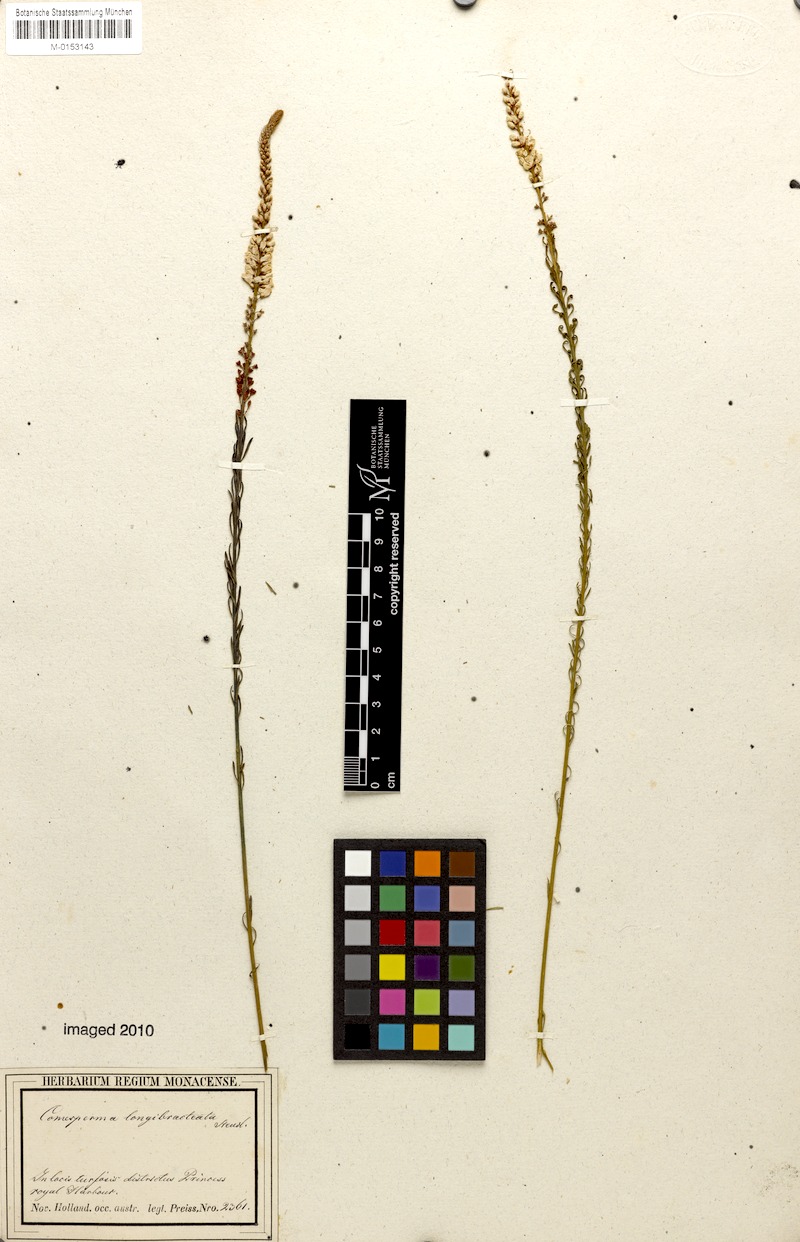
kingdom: Plantae
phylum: Tracheophyta
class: Magnoliopsida
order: Fabales
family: Polygalaceae
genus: Comesperma
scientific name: Comesperma virgatum
